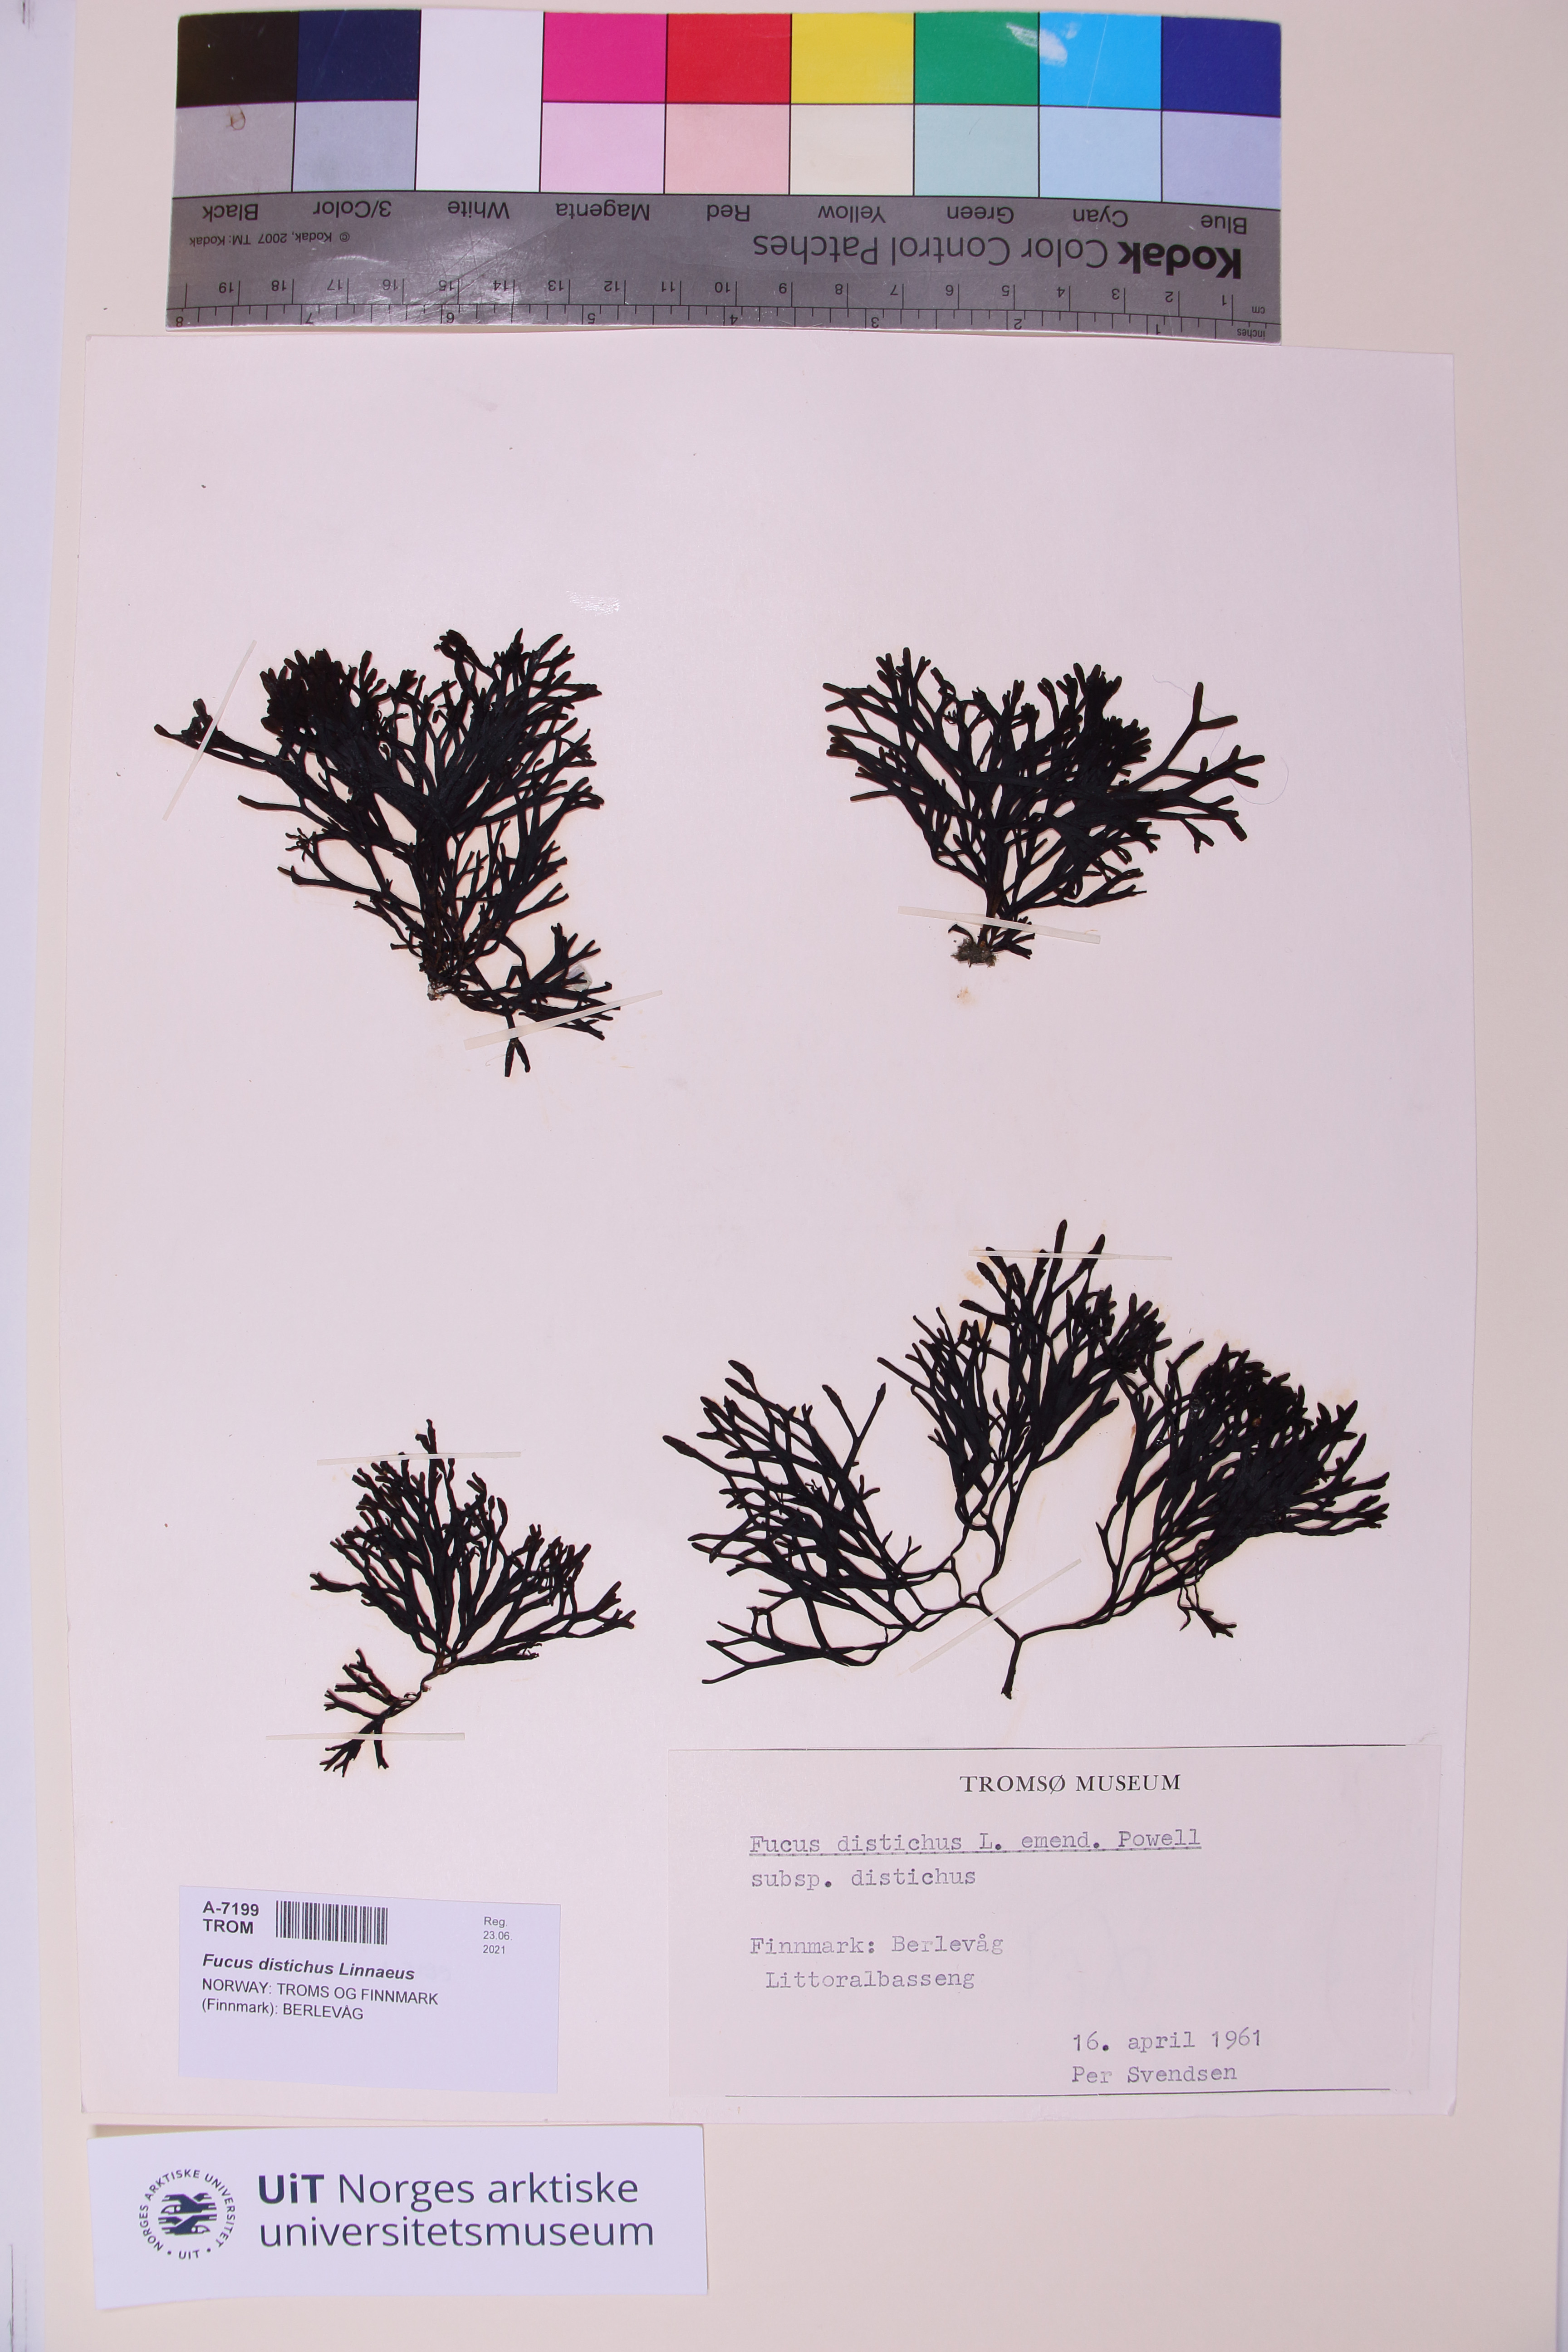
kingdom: Chromista
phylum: Ochrophyta
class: Phaeophyceae
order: Fucales
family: Fucaceae
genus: Fucus
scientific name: Fucus distichus
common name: Rockweed
